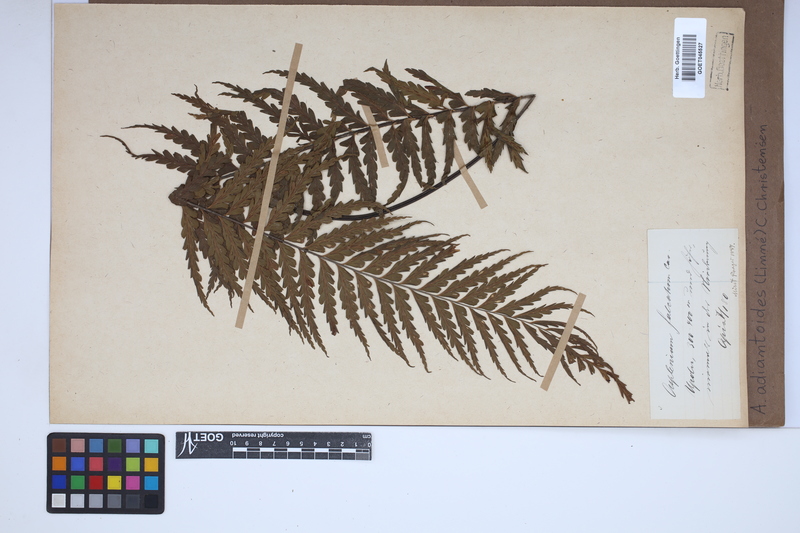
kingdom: Plantae
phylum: Tracheophyta
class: Polypodiopsida
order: Polypodiales
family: Aspleniaceae
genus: Asplenium
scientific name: Asplenium aethiopicum
